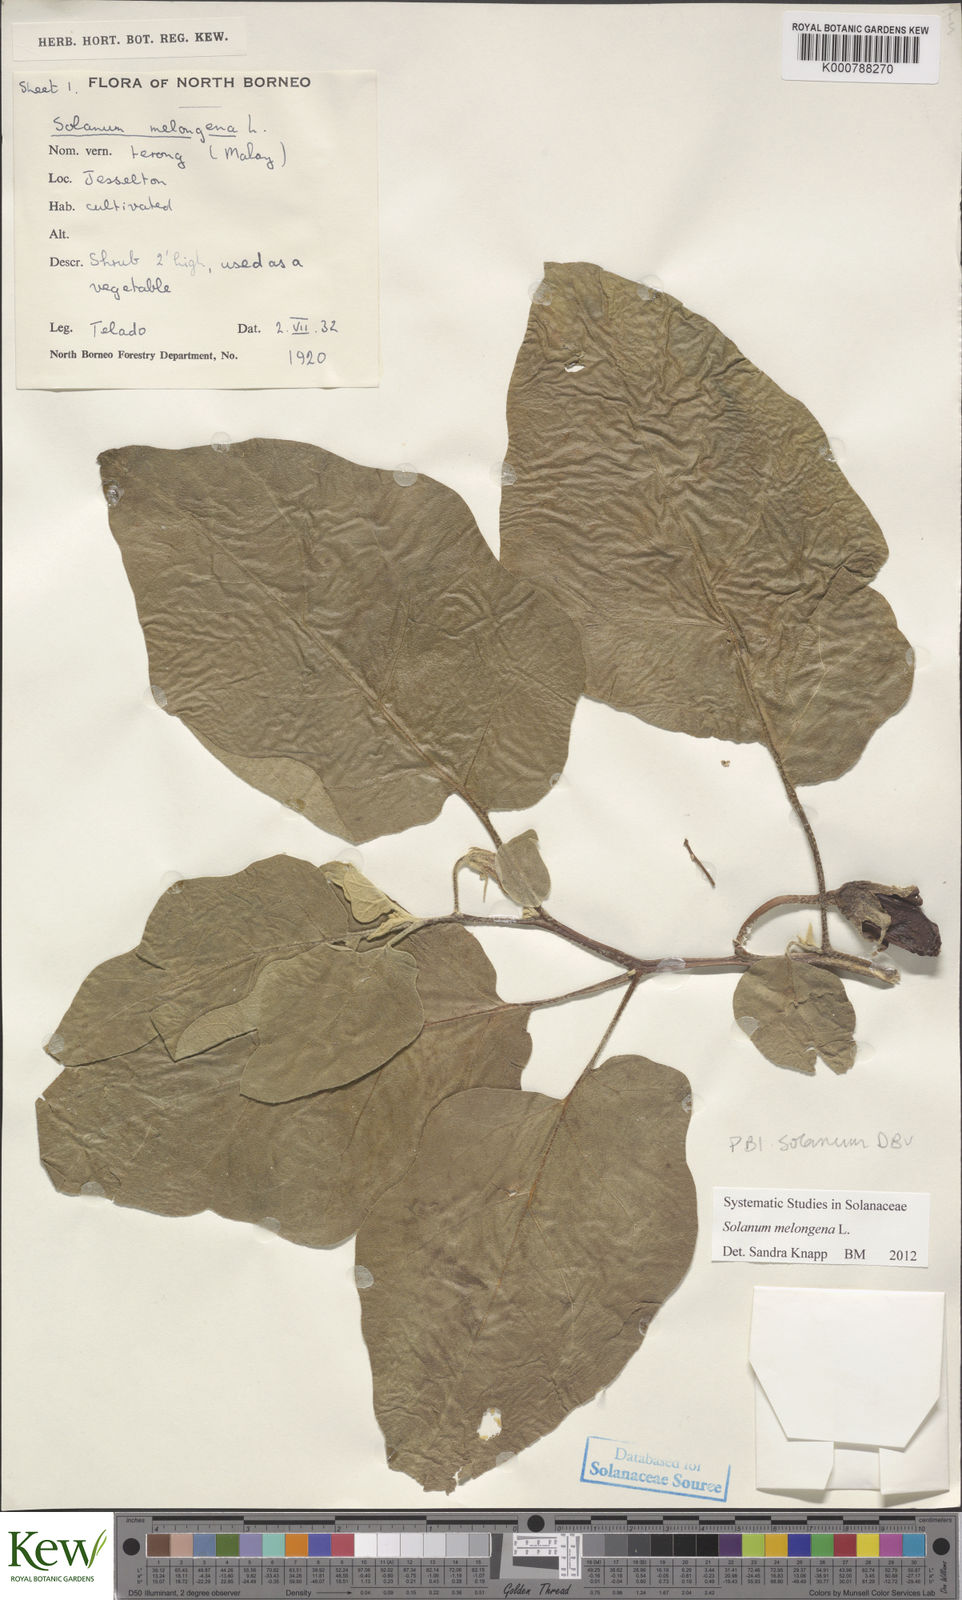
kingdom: Plantae
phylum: Tracheophyta
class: Magnoliopsida
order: Solanales
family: Solanaceae
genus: Solanum
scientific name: Solanum melongena
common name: Eggplant
